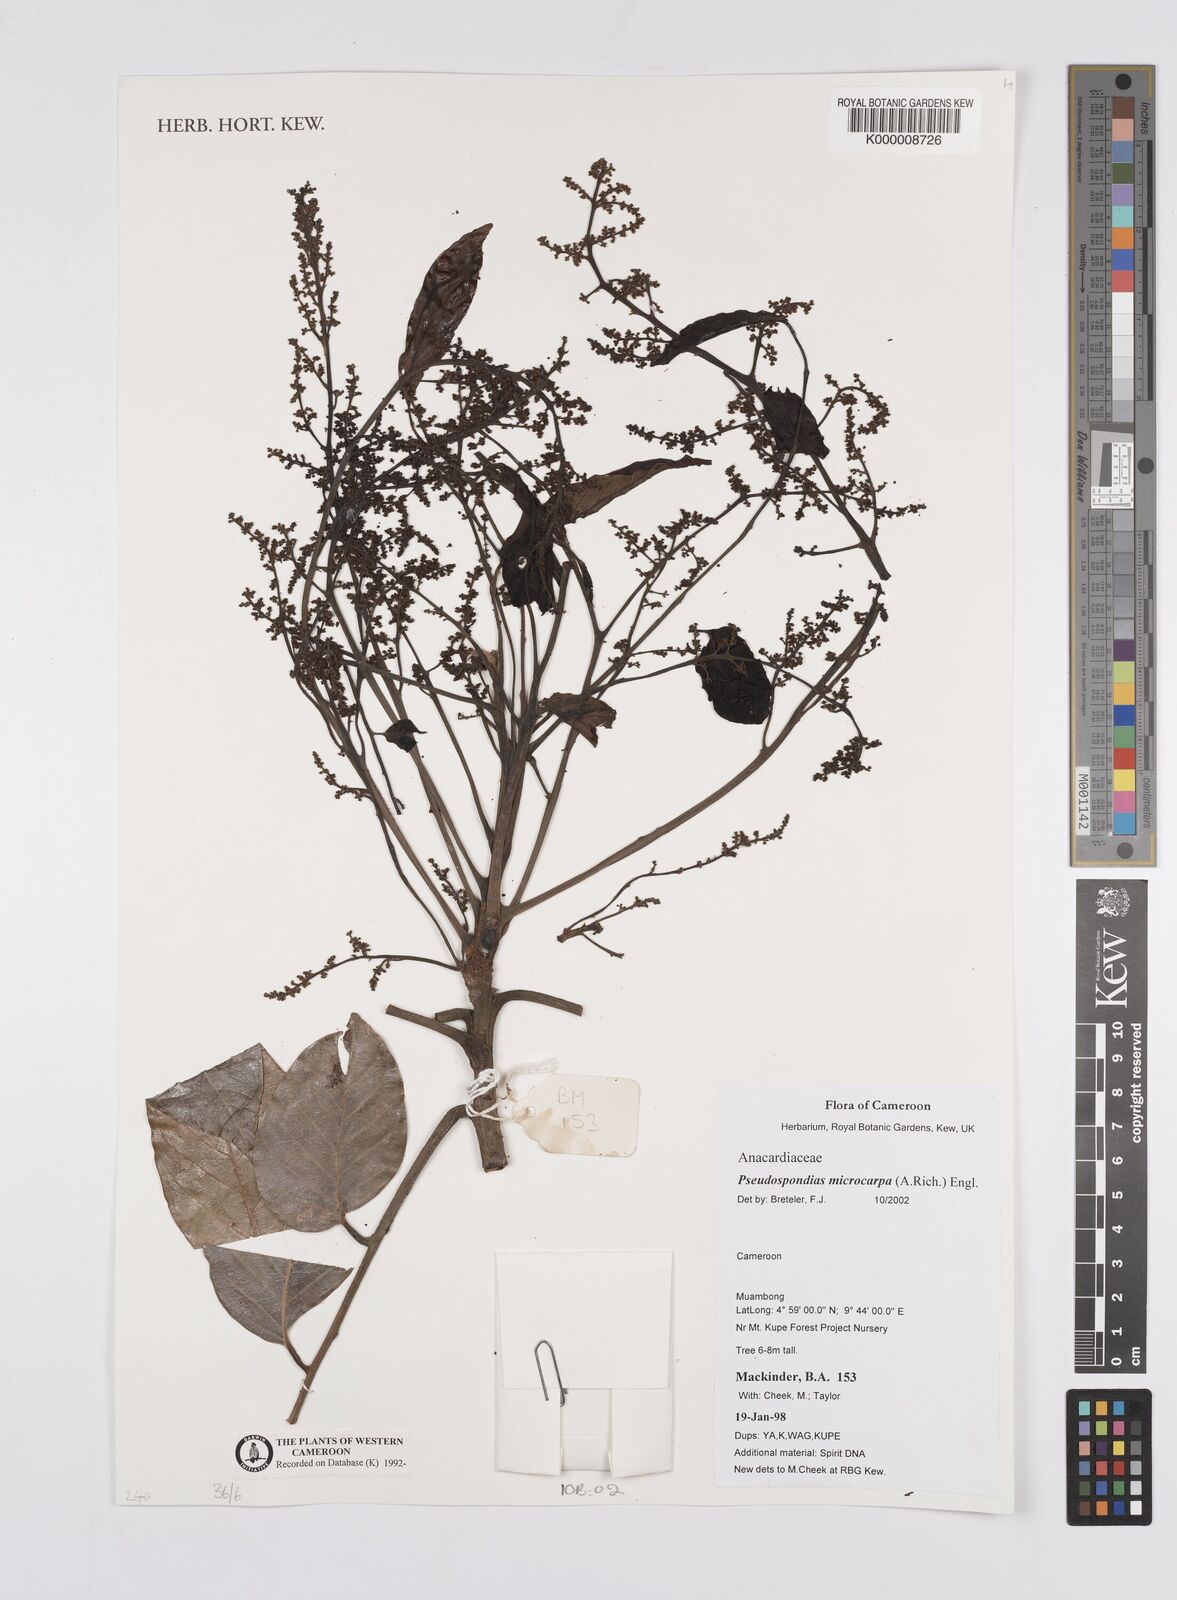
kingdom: Plantae
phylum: Tracheophyta
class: Magnoliopsida
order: Sapindales
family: Anacardiaceae
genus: Pseudospondias
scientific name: Pseudospondias microcarpa
